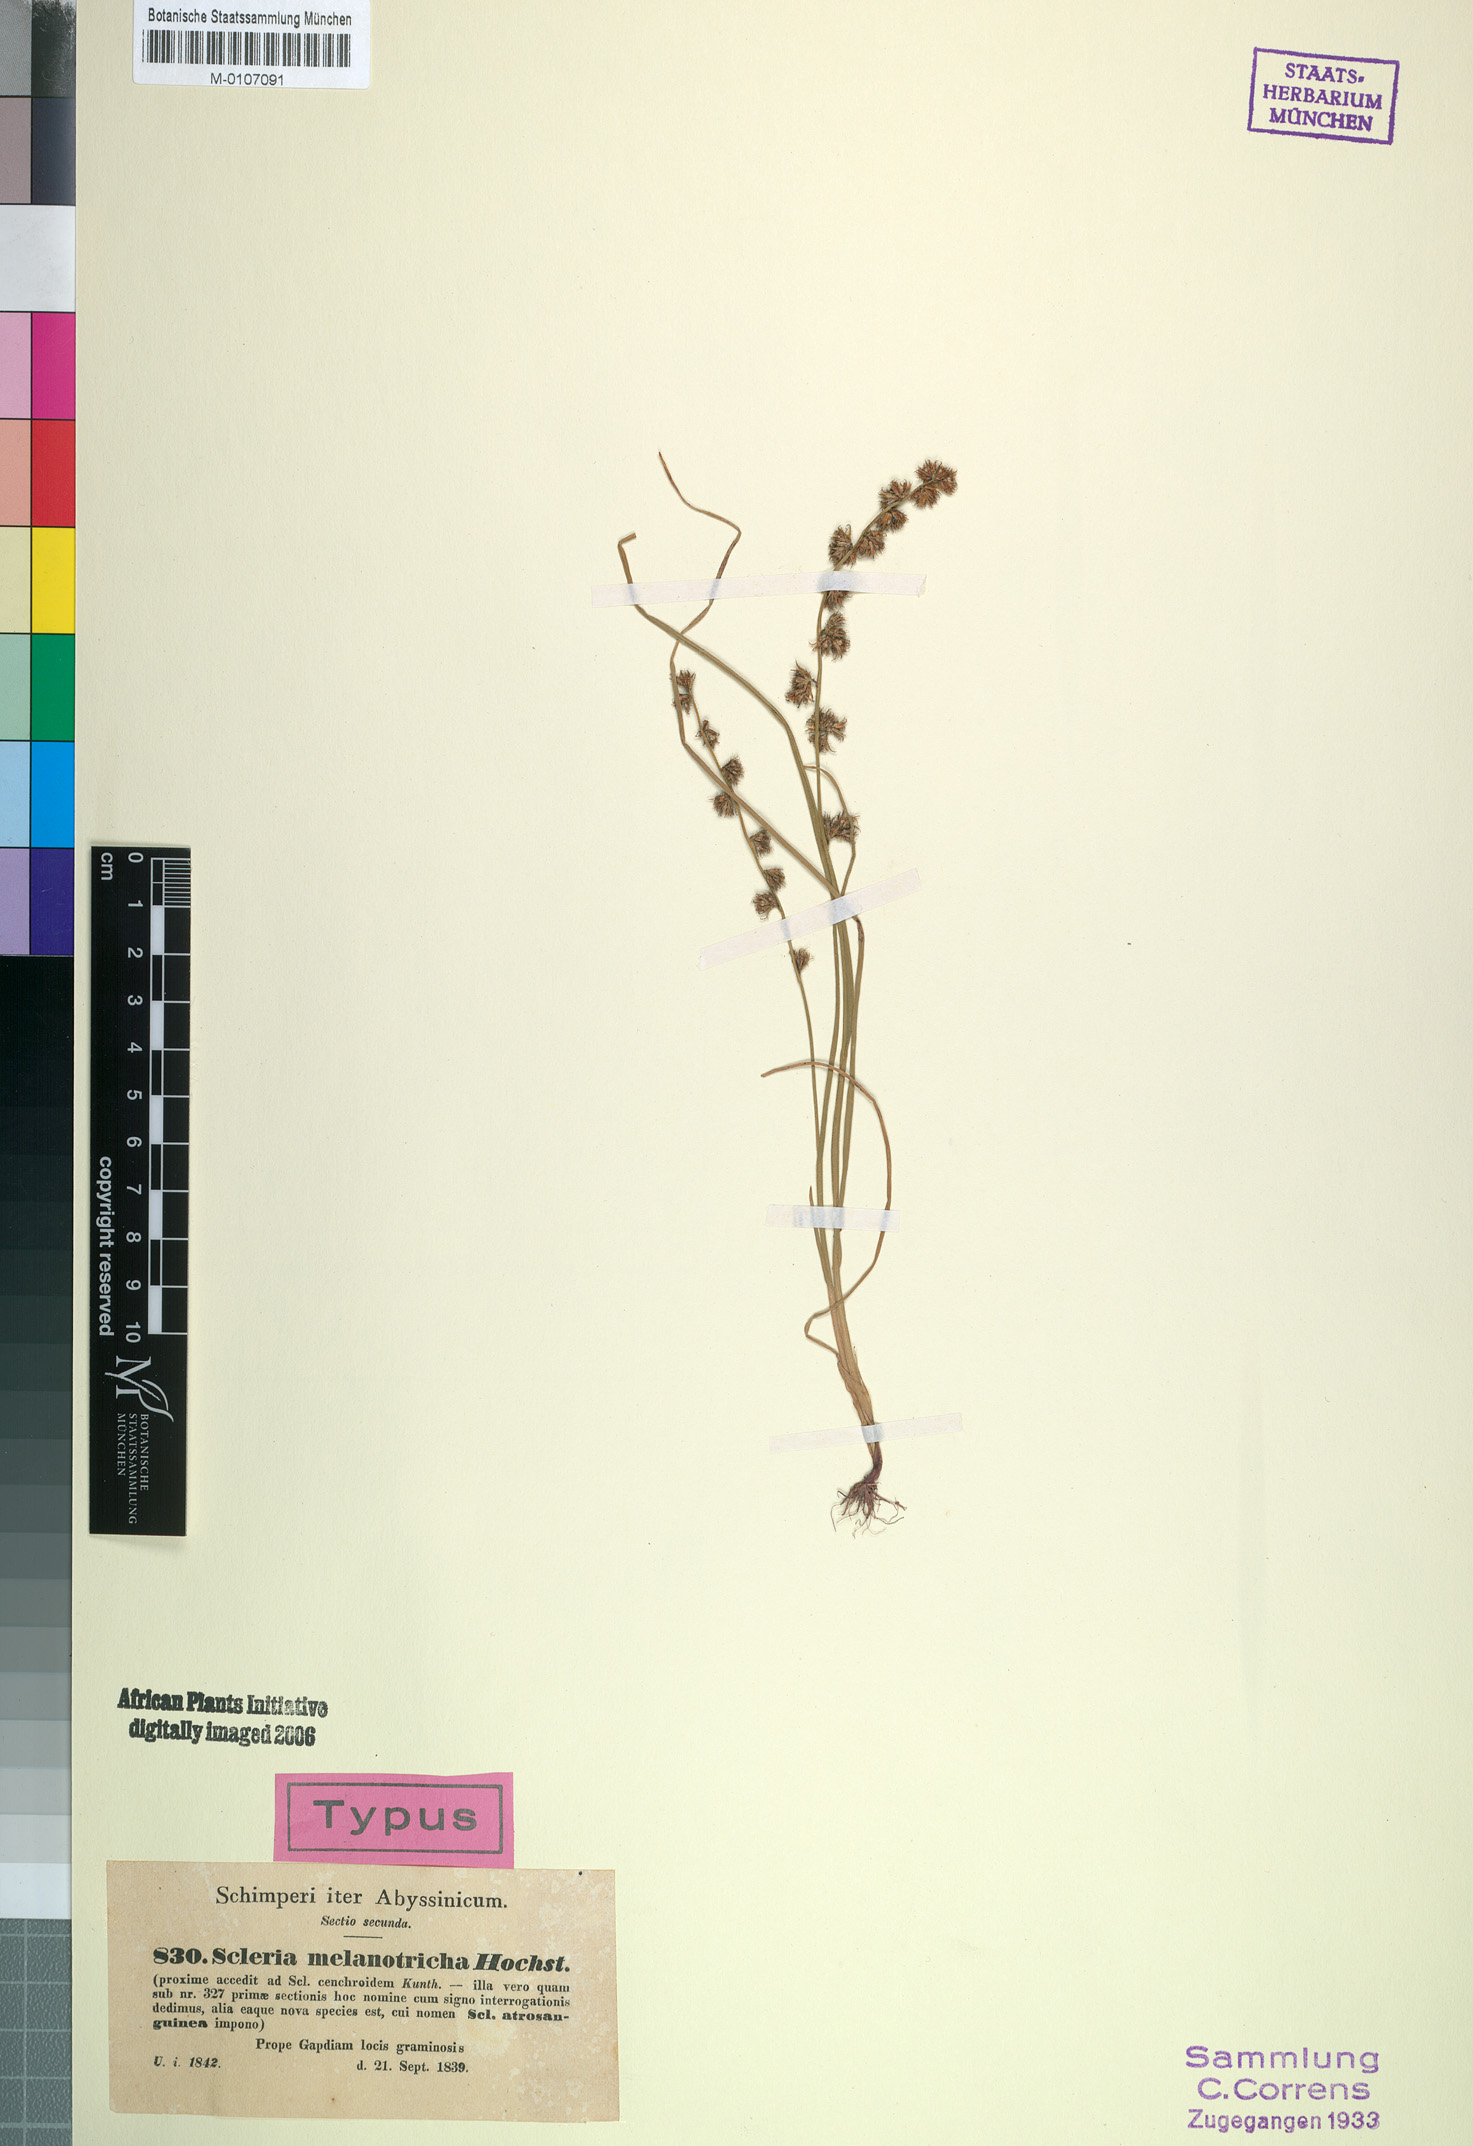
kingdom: Plantae
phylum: Tracheophyta
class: Liliopsida
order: Poales
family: Cyperaceae
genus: Scleria
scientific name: Scleria melanotricha
